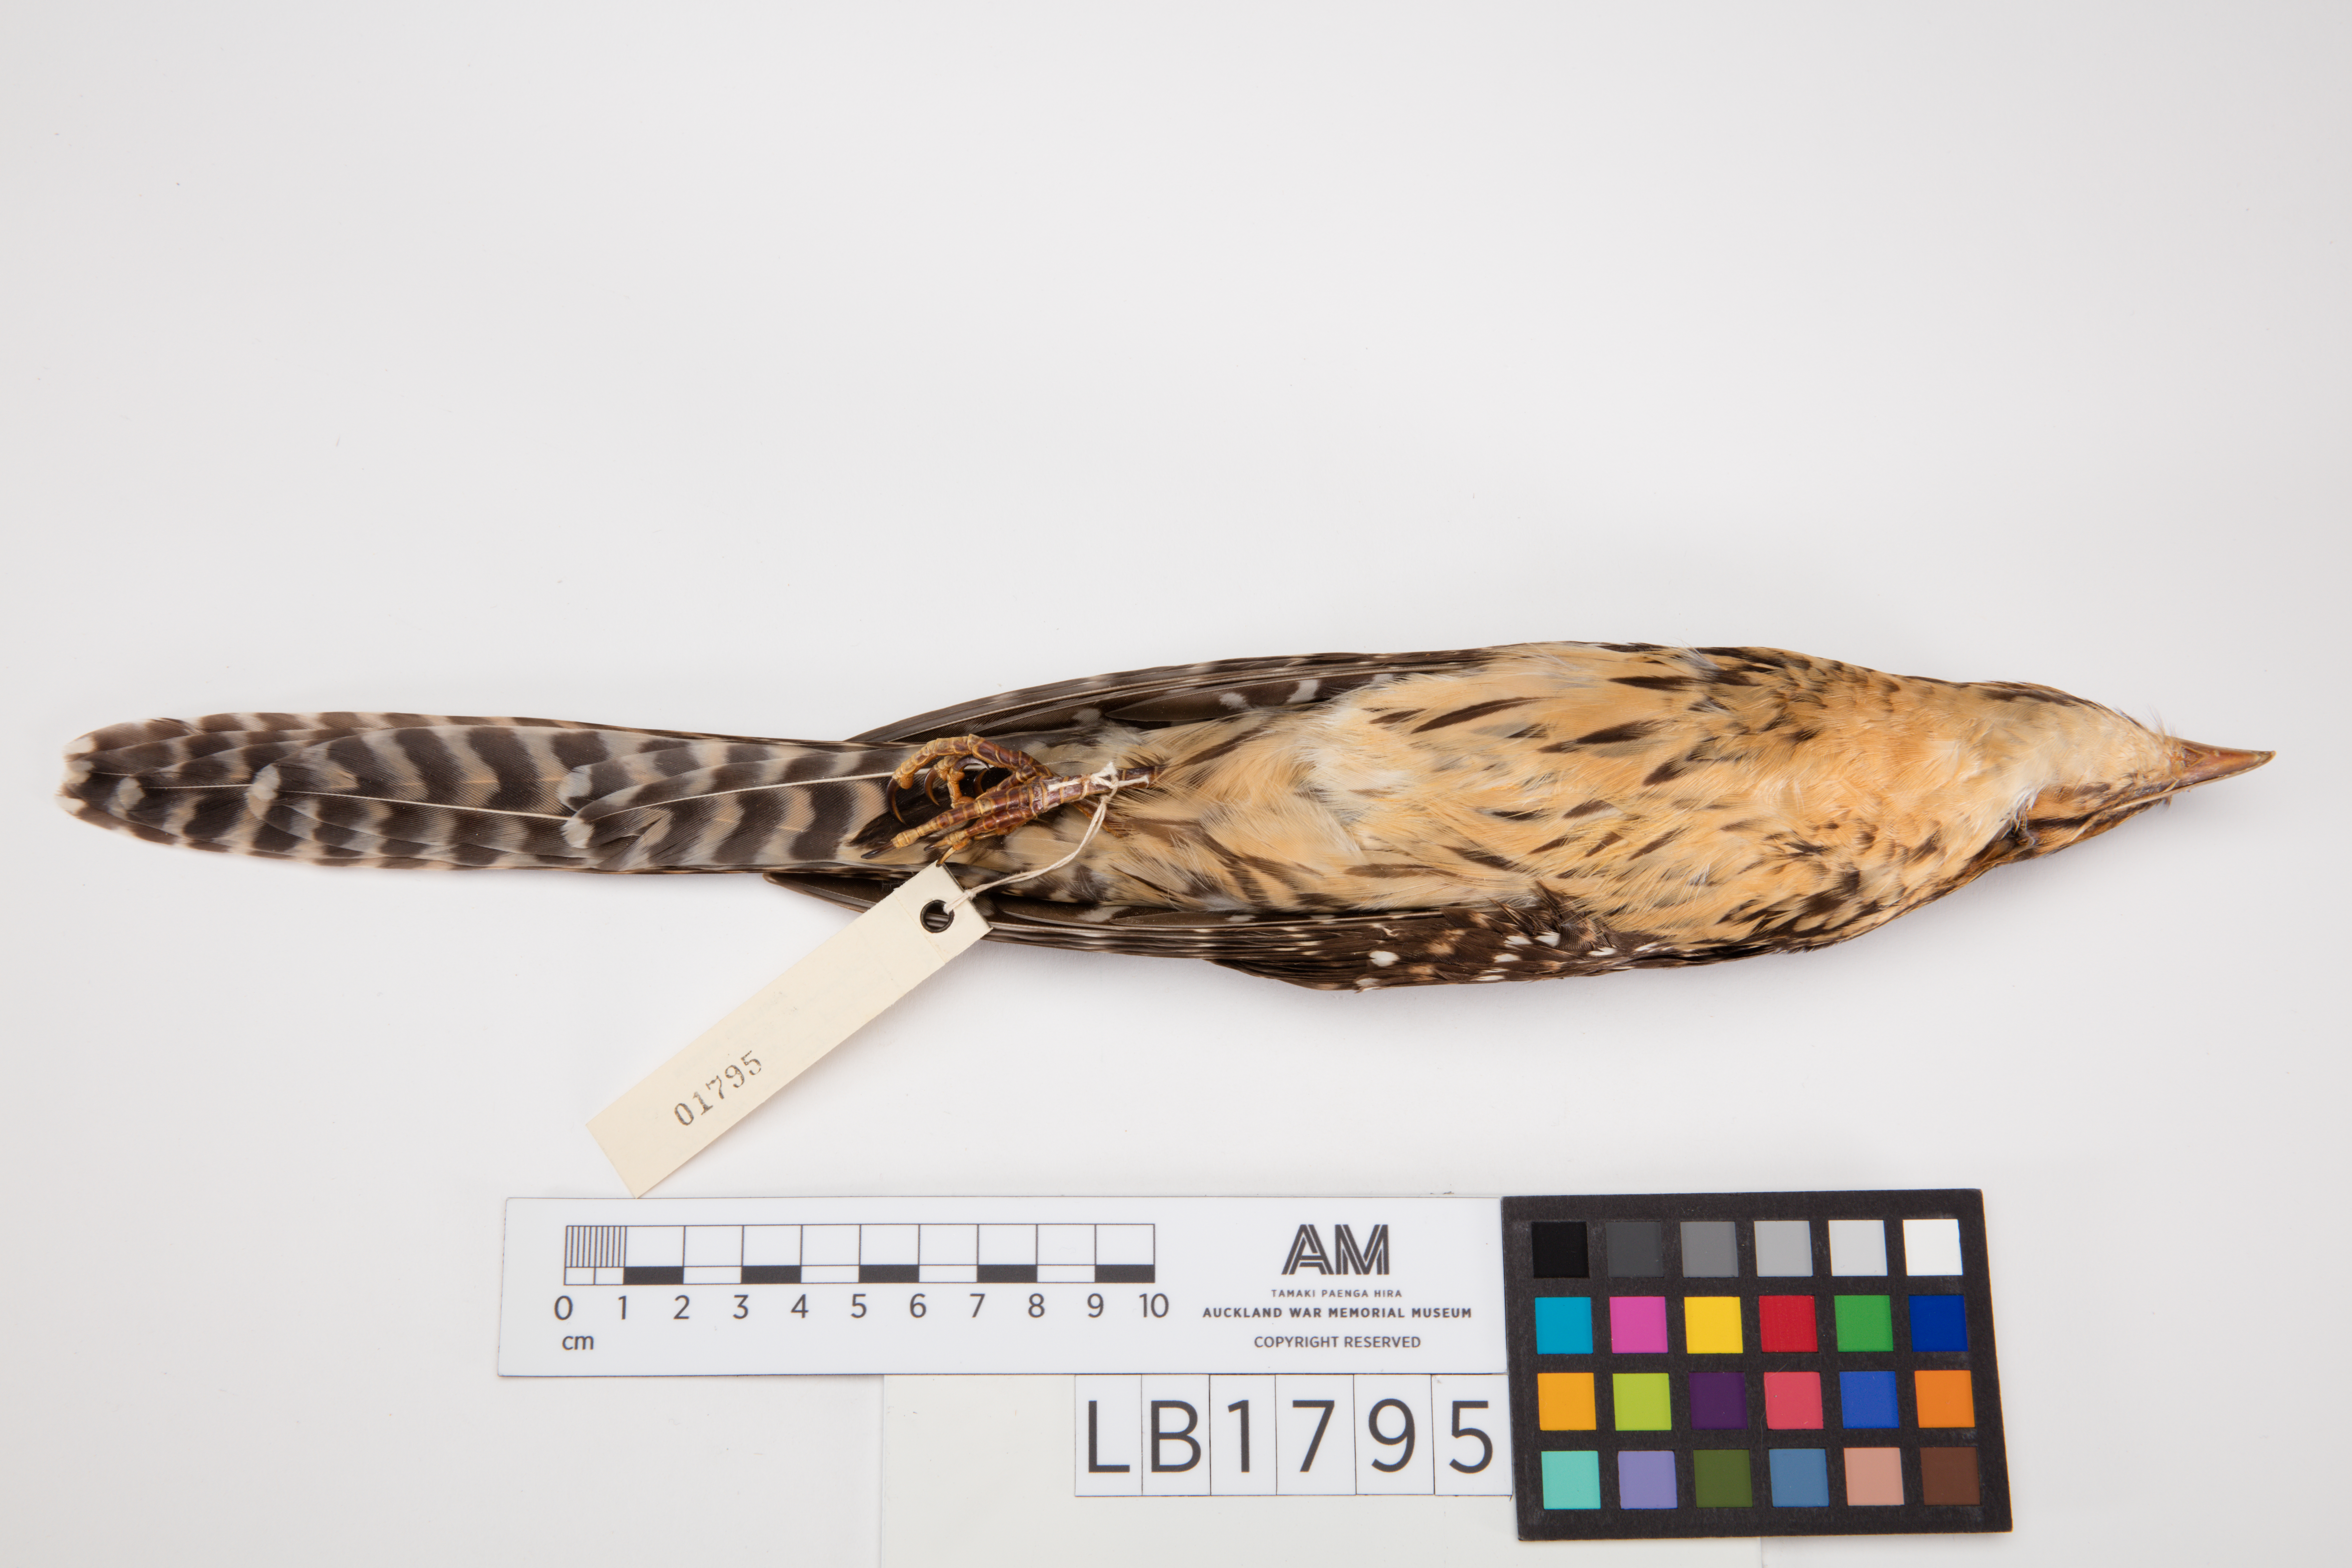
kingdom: Animalia
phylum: Chordata
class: Aves
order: Cuculiformes
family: Cuculidae
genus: Urodynamis
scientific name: Urodynamis taitensis
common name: Long-tailed koel
